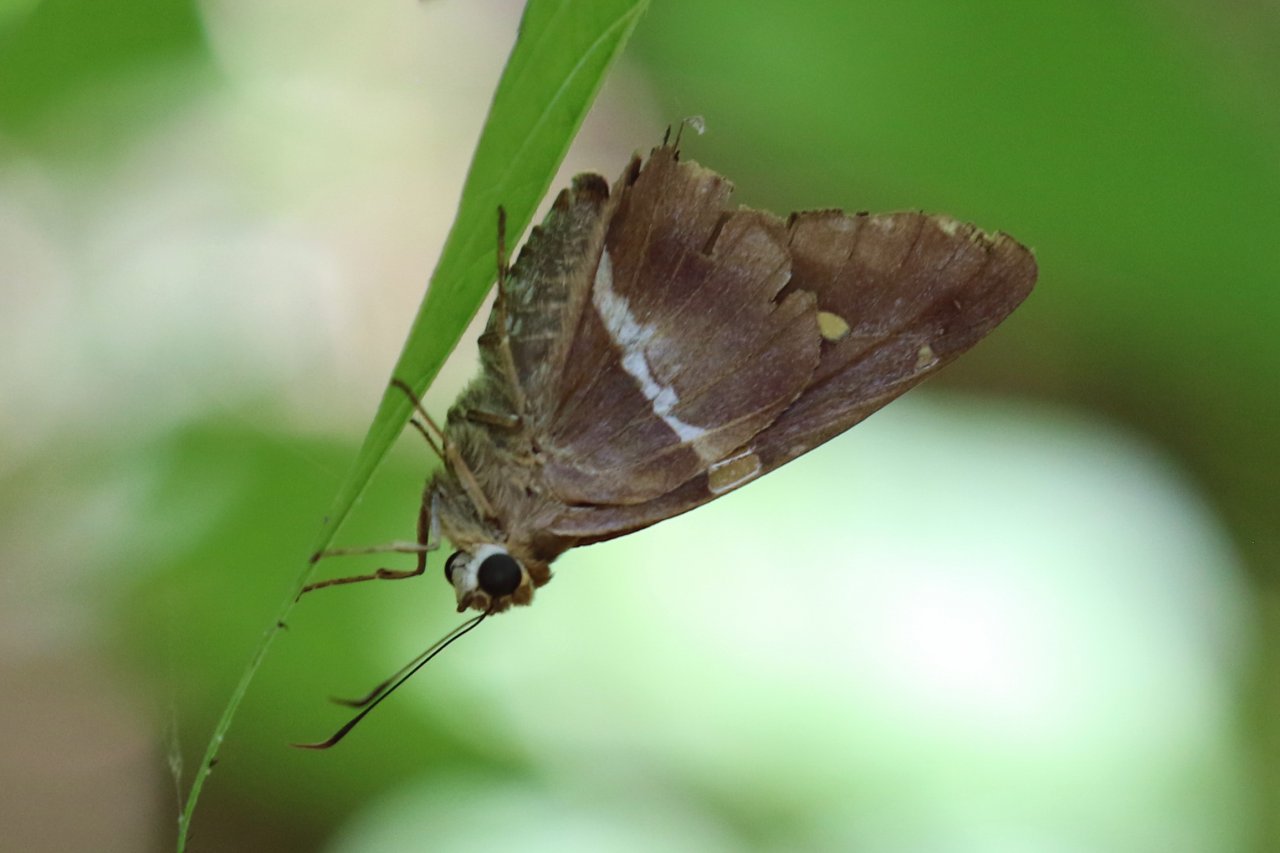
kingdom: Animalia
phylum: Arthropoda
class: Insecta
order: Lepidoptera
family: Hesperiidae
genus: Aguna
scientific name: Aguna asander
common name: Gold-spotted Aguna
